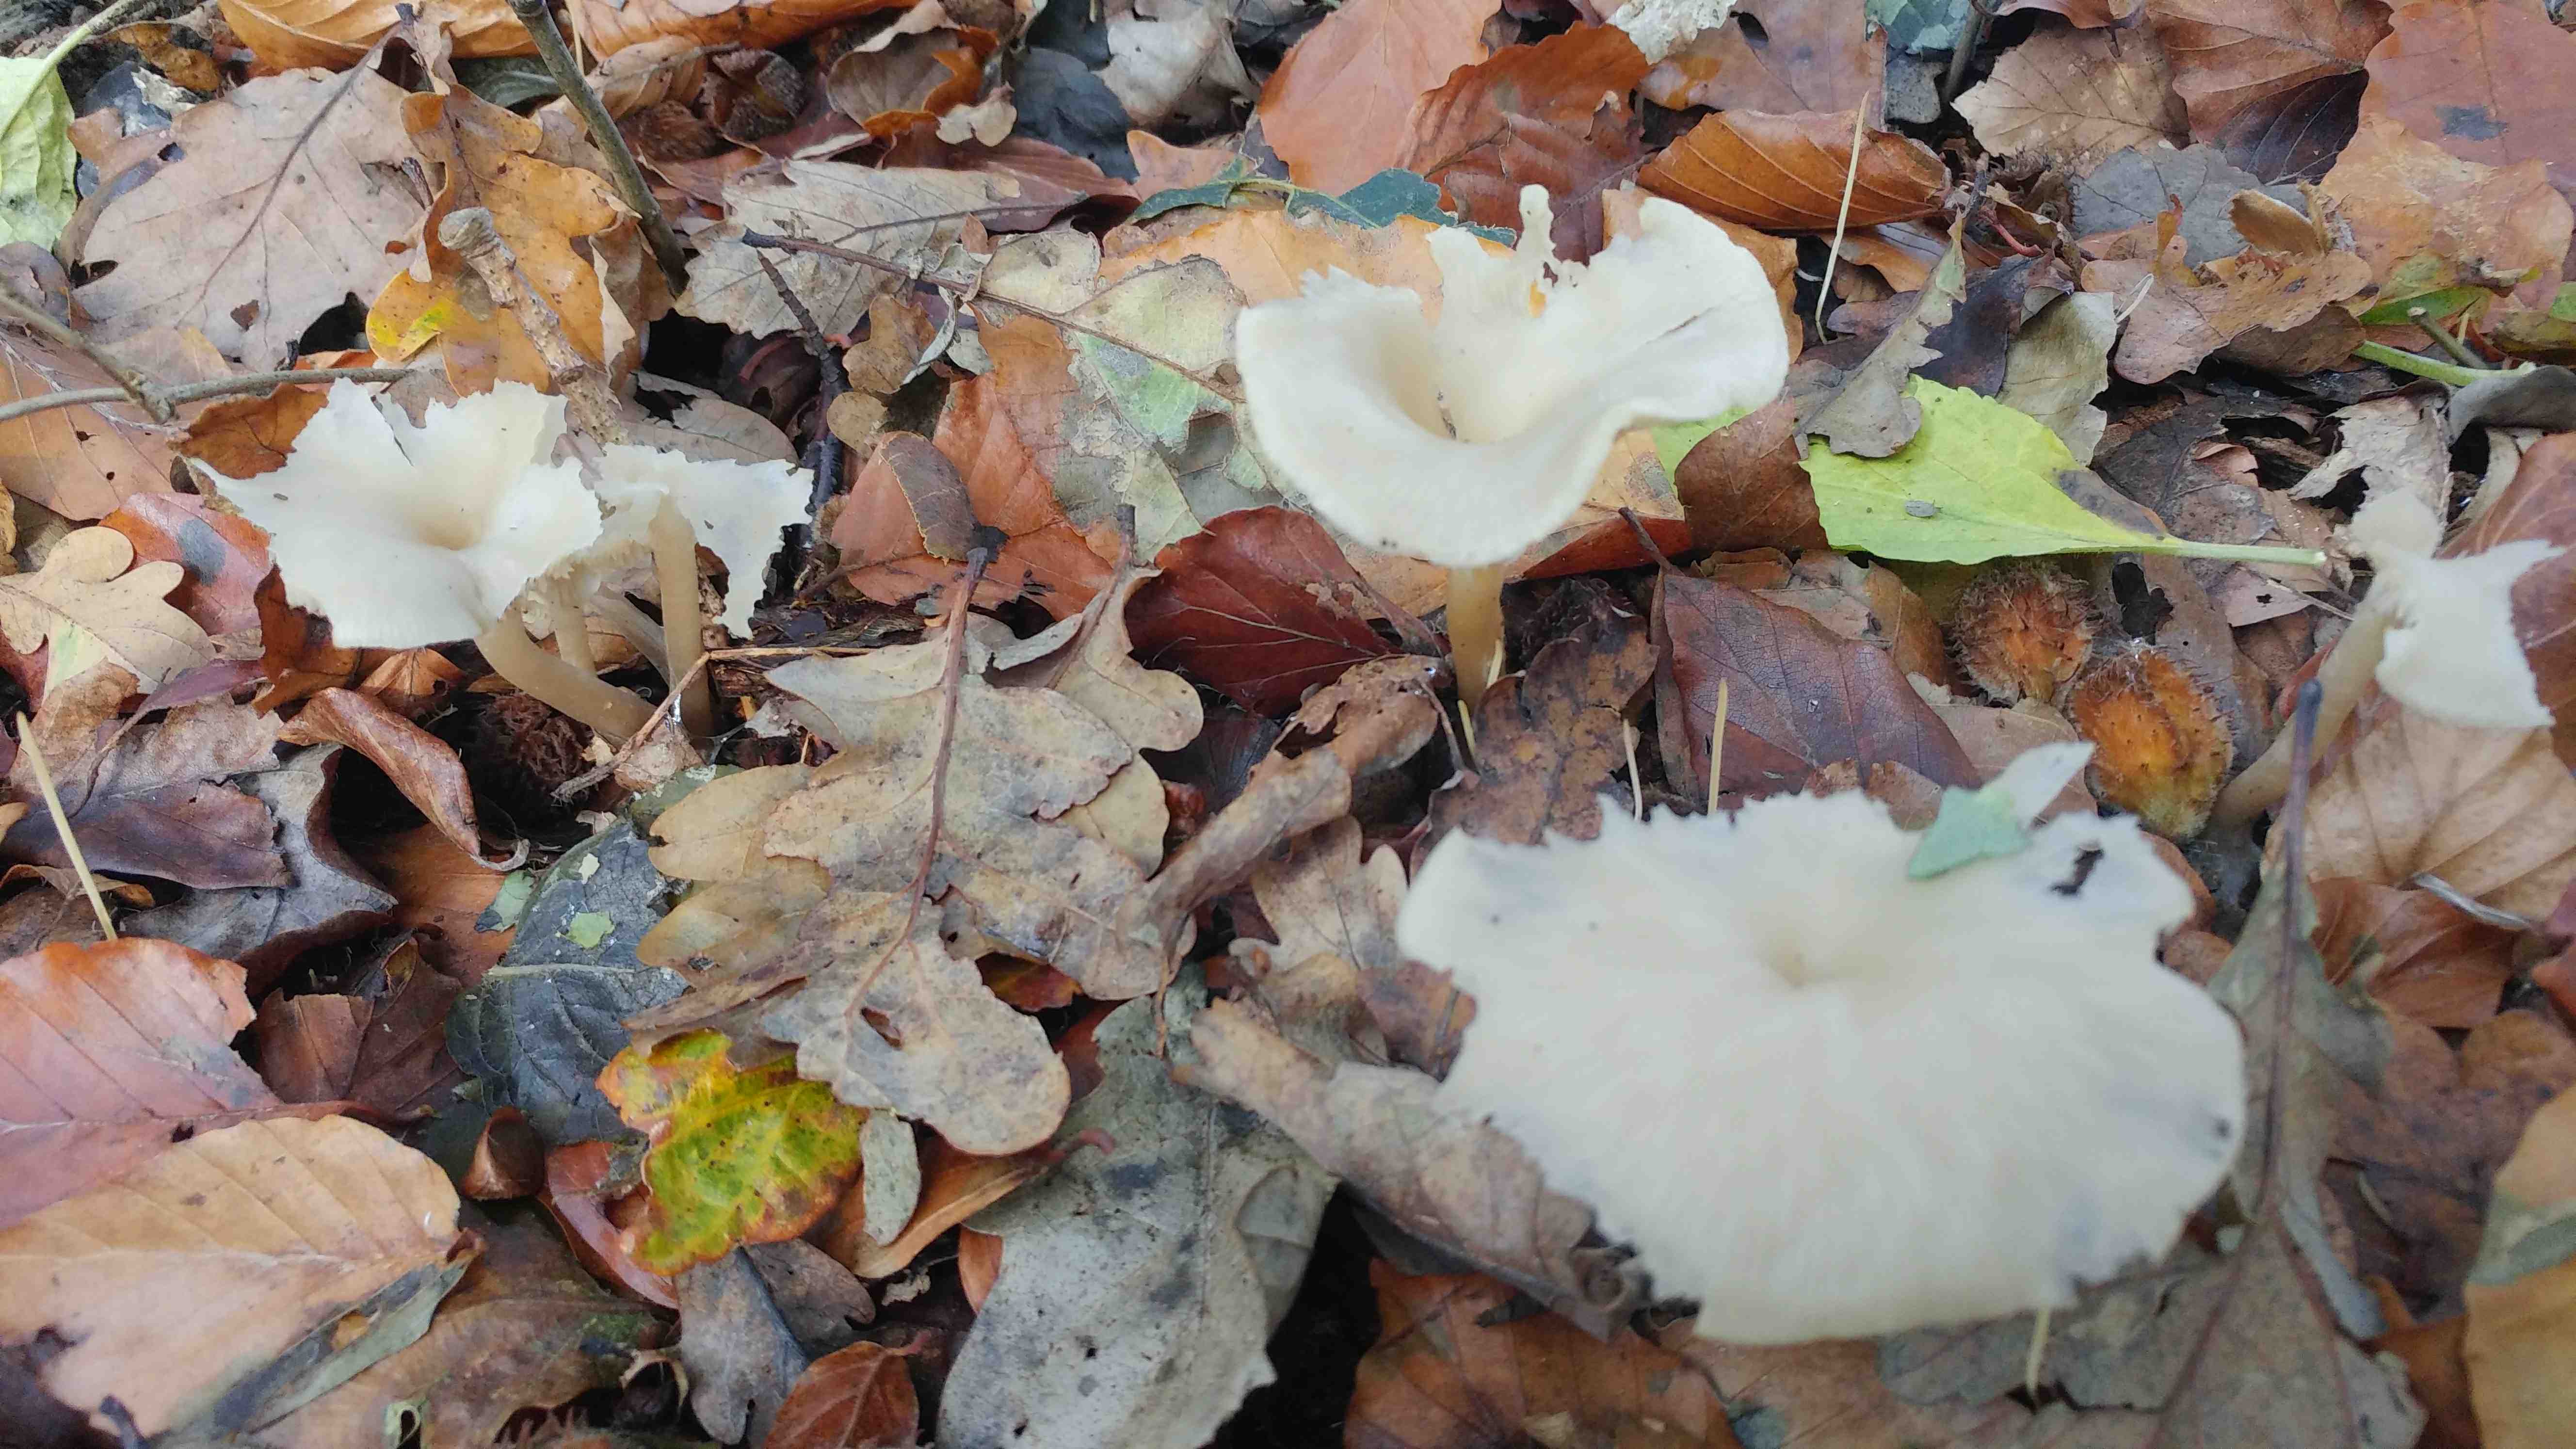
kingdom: Fungi
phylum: Basidiomycota
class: Agaricomycetes
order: Agaricales
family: Tricholomataceae
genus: Clitocybe
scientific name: Clitocybe
